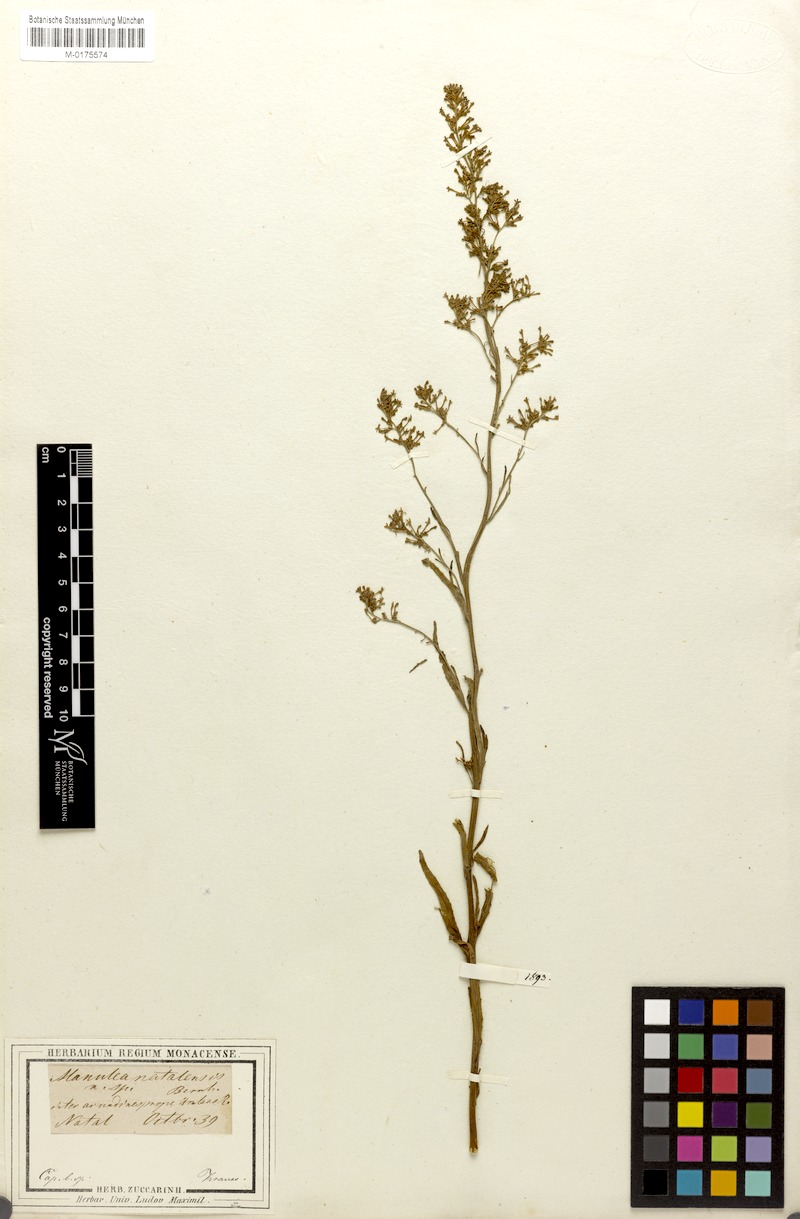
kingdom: Plantae
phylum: Tracheophyta
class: Magnoliopsida
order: Lamiales
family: Scrophulariaceae
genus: Manulea
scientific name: Manulea parviflora
